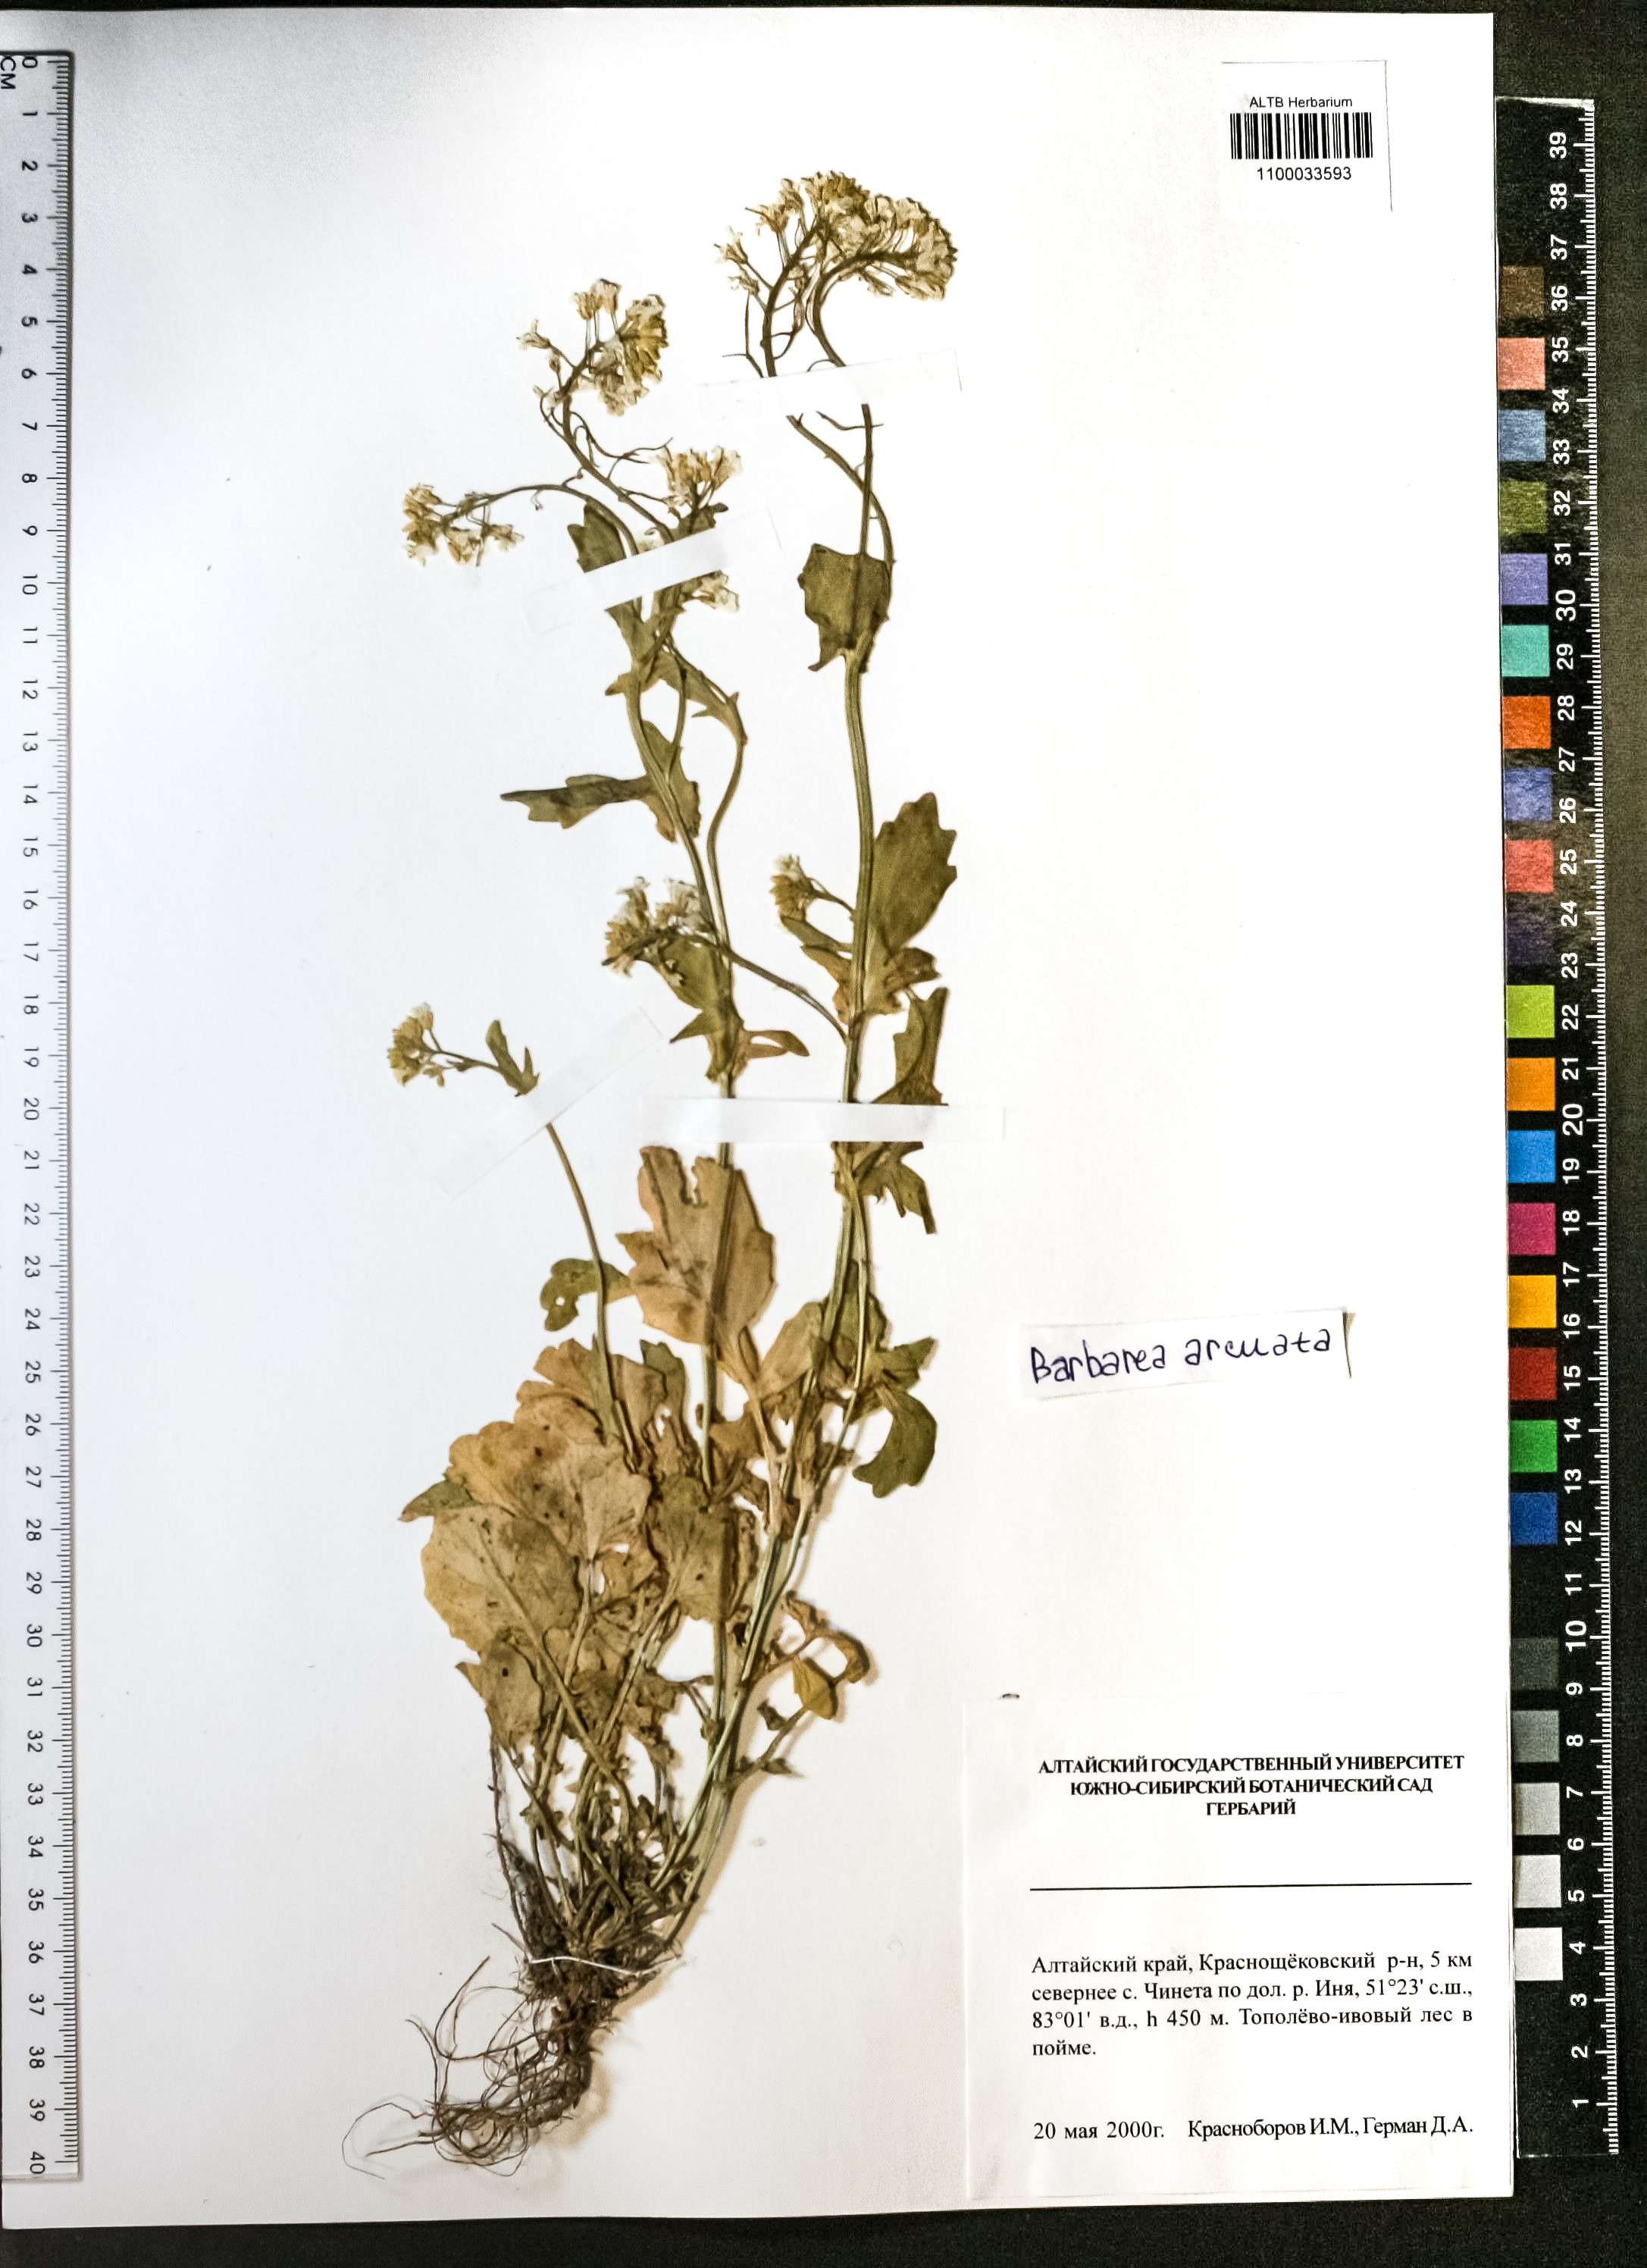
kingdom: Plantae
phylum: Tracheophyta
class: Magnoliopsida
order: Brassicales
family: Brassicaceae
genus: Barbarea
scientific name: Barbarea vulgaris
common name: Cressy-greens
